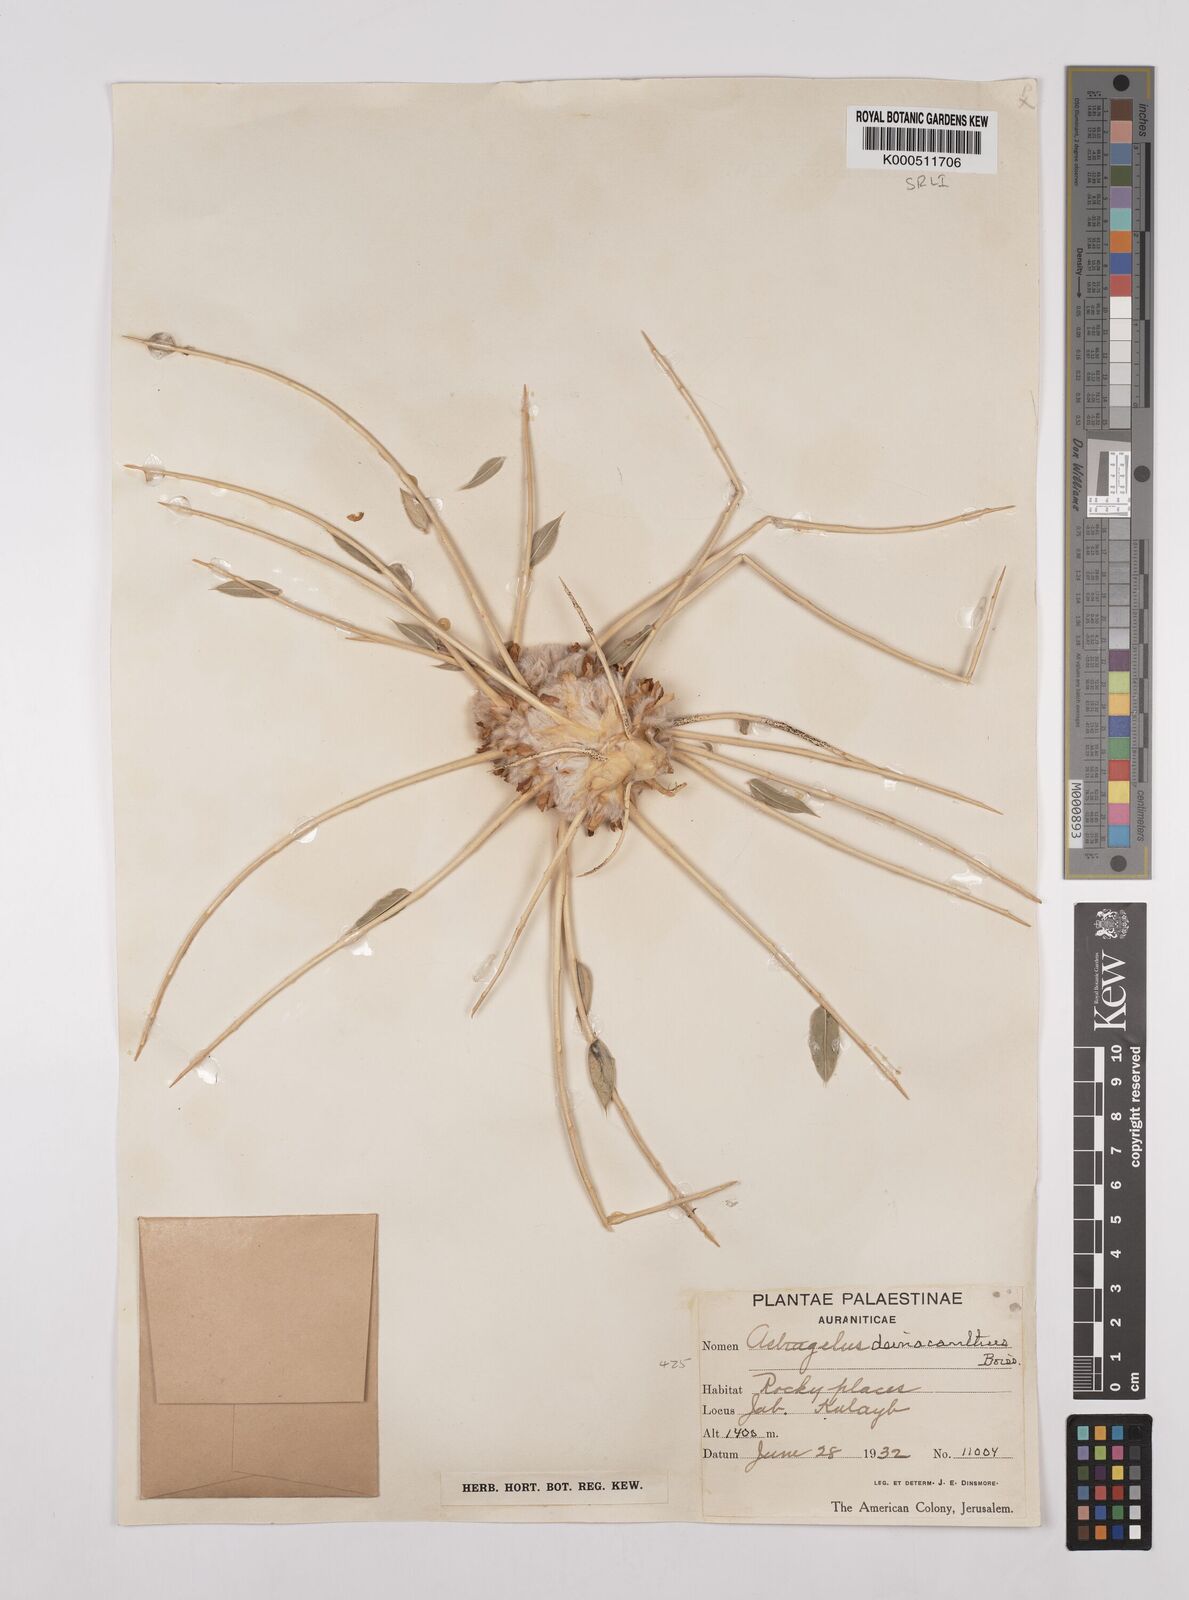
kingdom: Plantae
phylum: Tracheophyta
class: Magnoliopsida
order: Fabales
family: Fabaceae
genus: Astragalus
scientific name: Astragalus oleifolius
